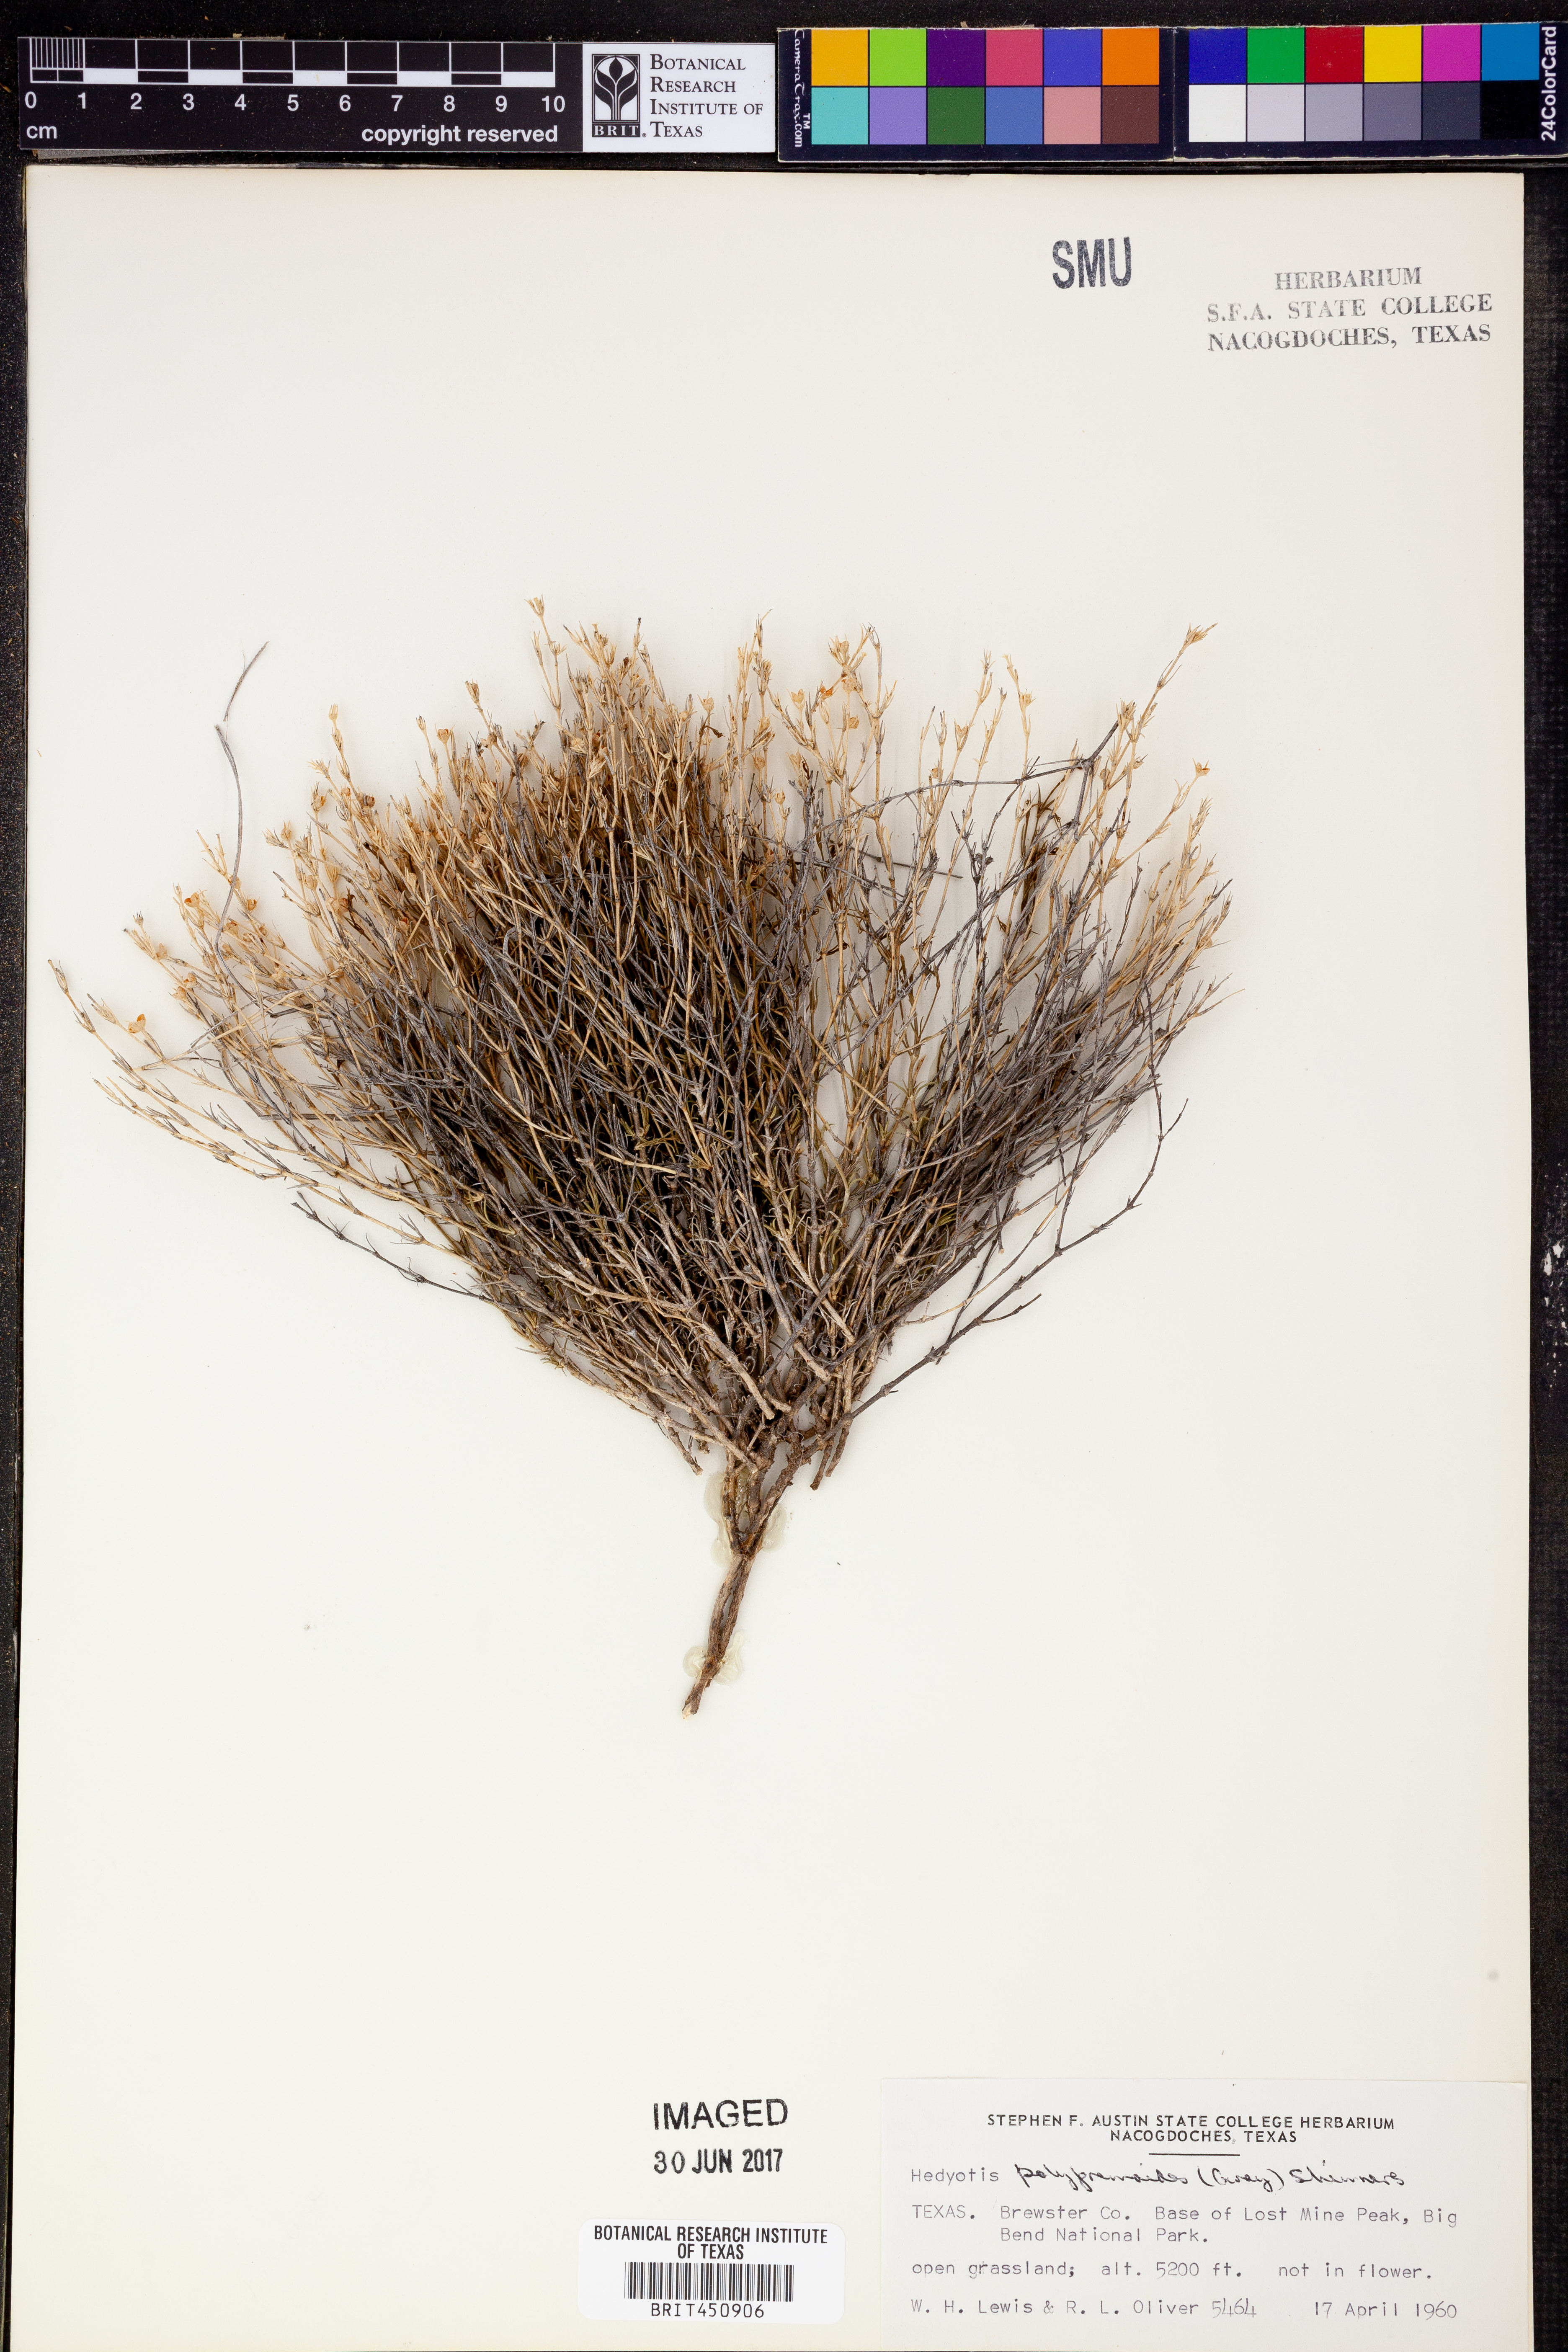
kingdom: Plantae
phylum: Tracheophyta
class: Magnoliopsida
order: Gentianales
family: Rubiaceae
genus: Houstonia
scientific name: Houstonia acerosa
